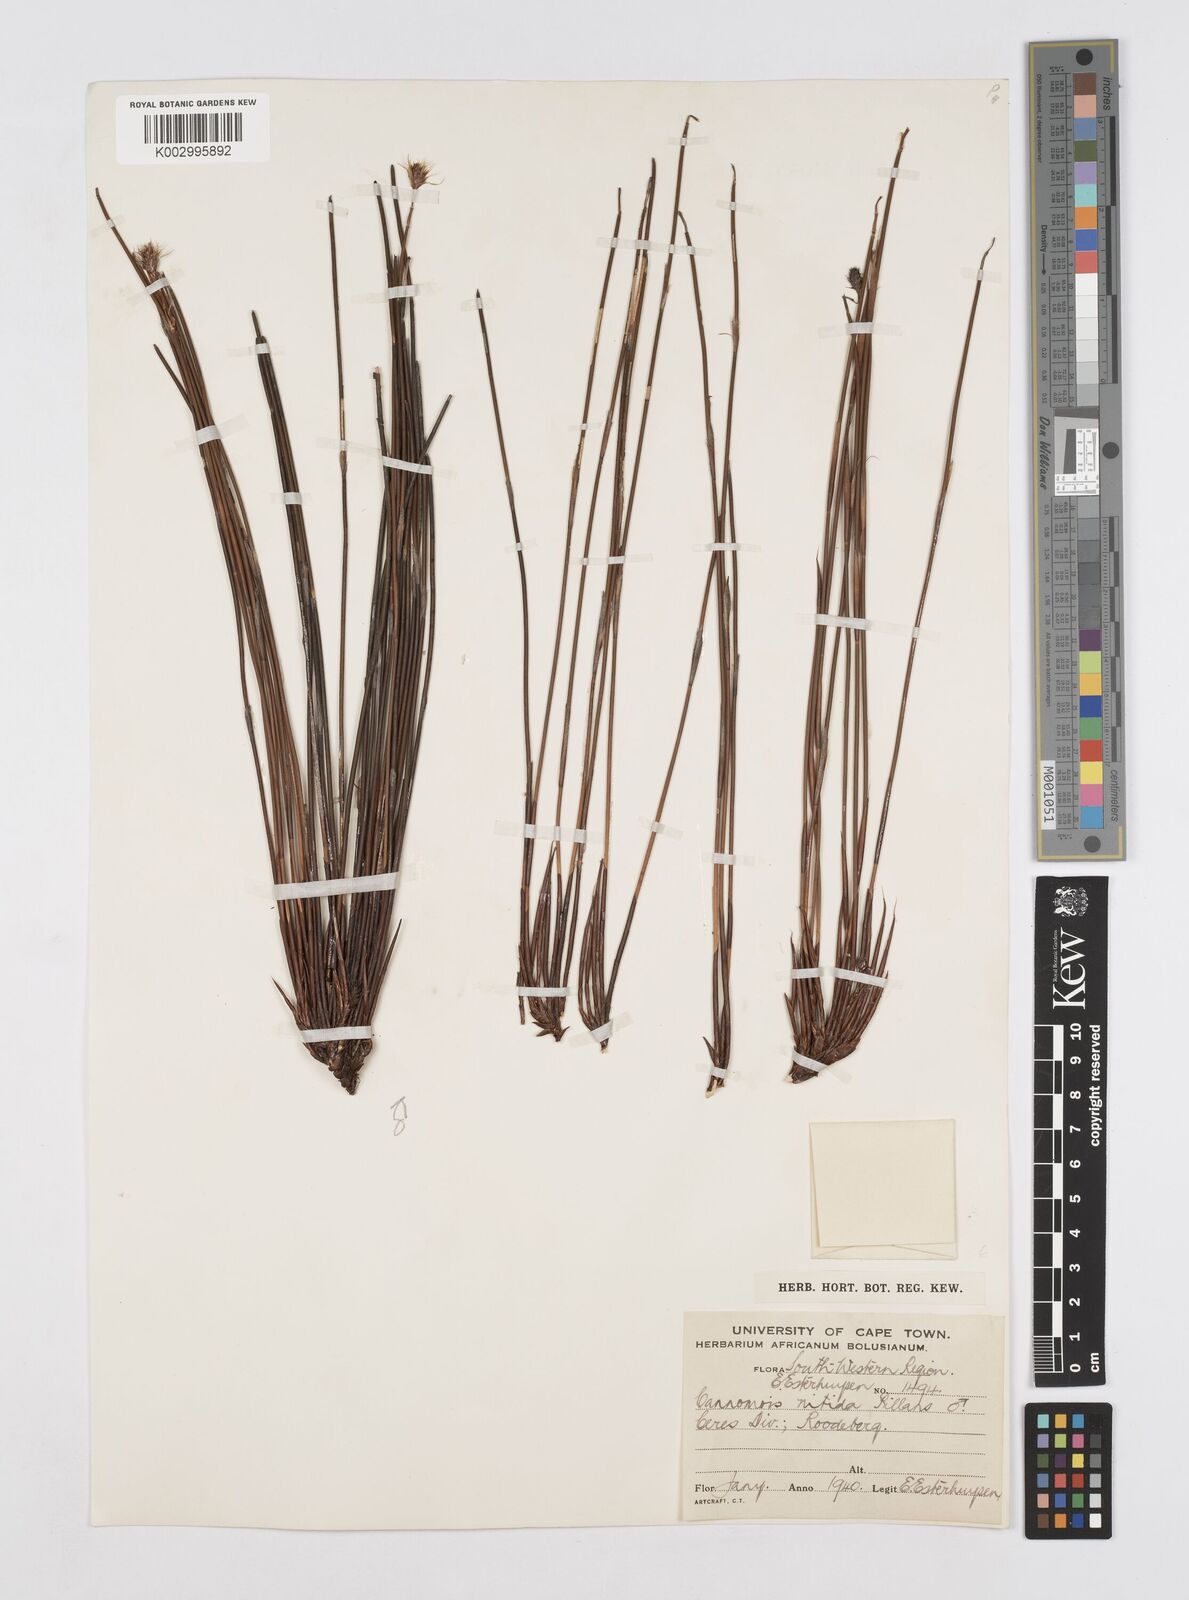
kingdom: Plantae
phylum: Tracheophyta
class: Liliopsida
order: Poales
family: Restionaceae
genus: Cannomois
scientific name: Cannomois nitida
